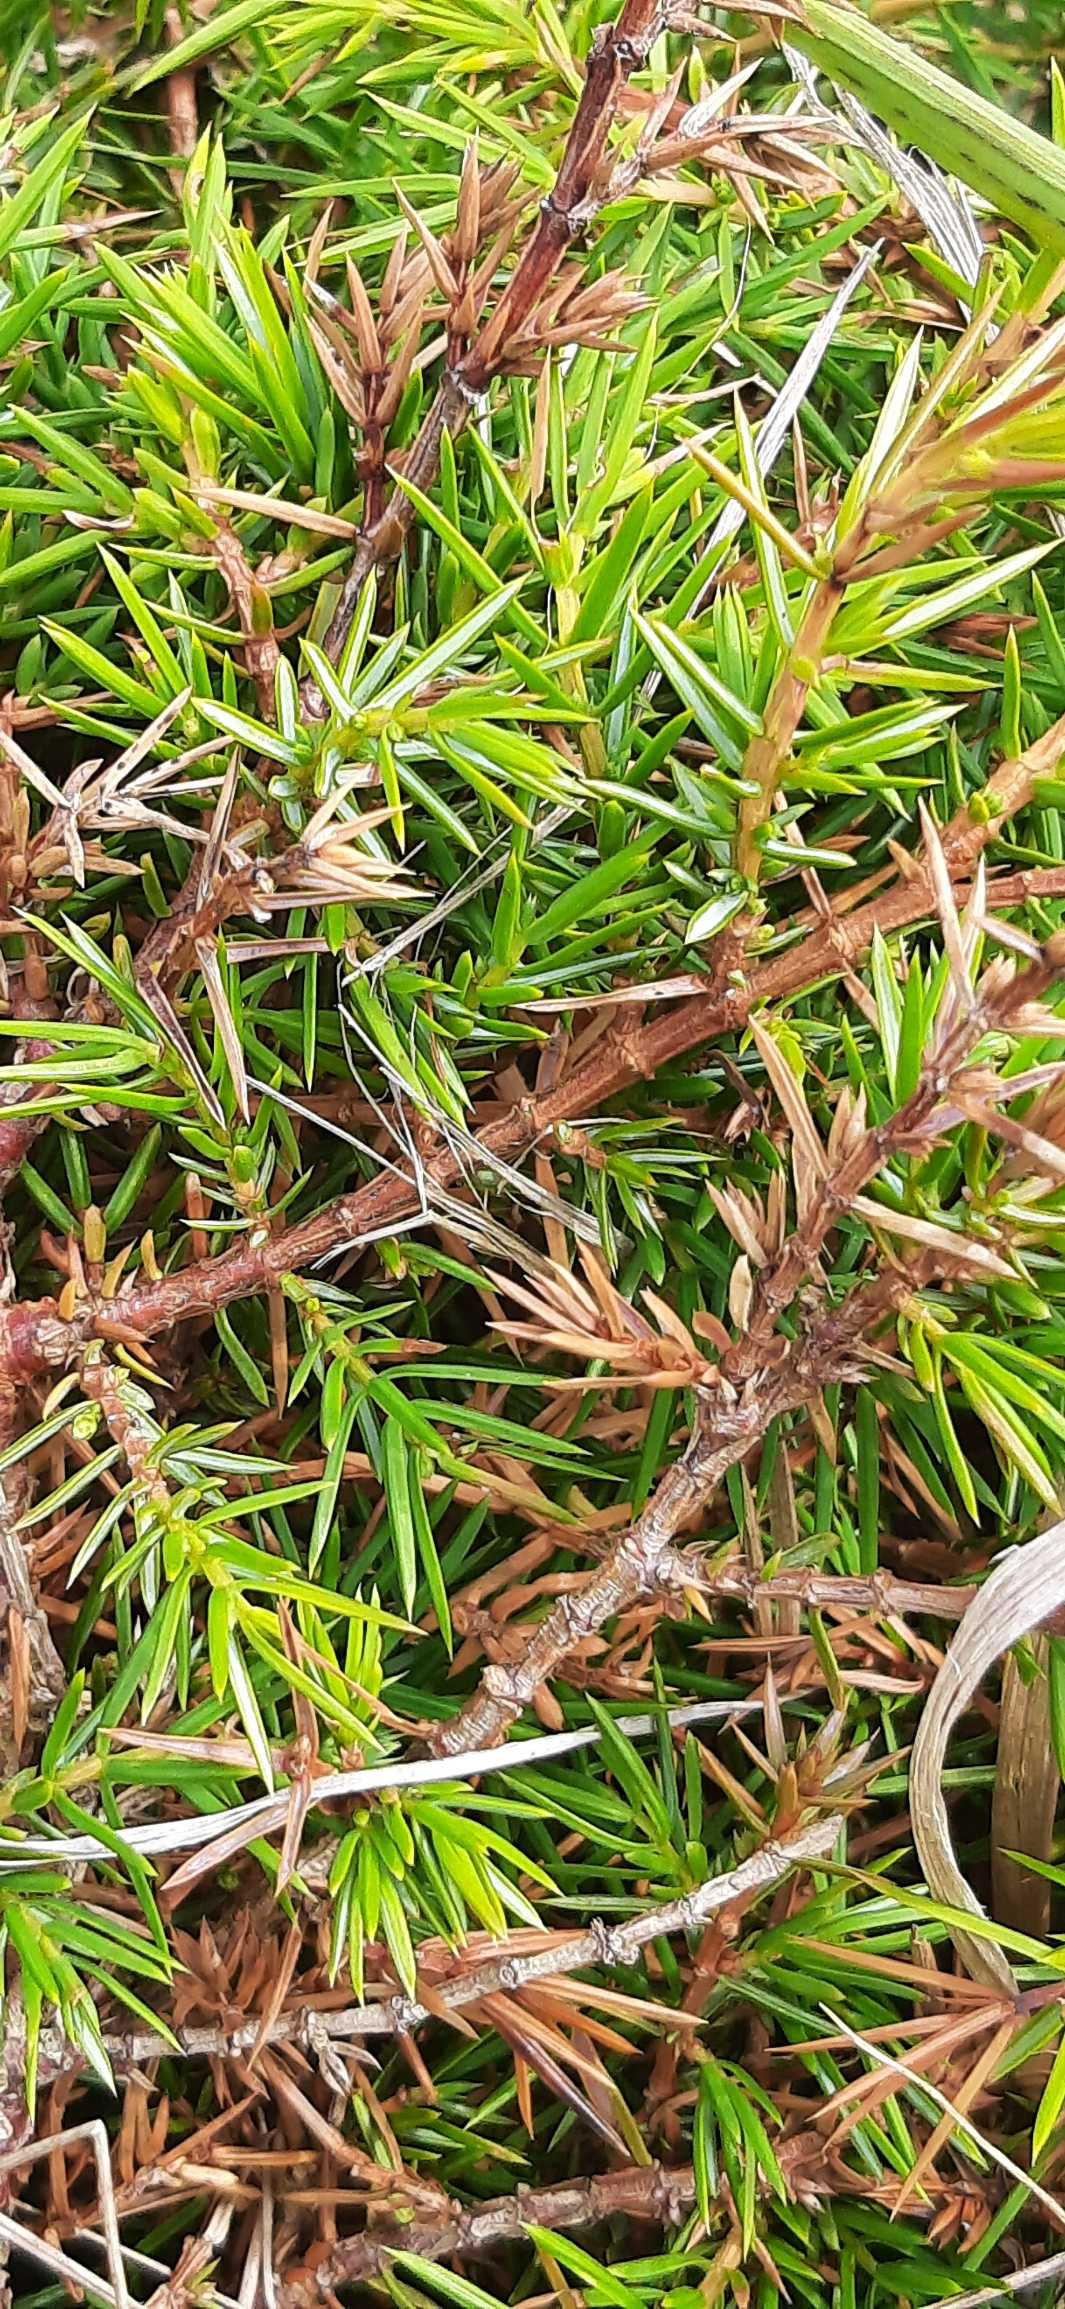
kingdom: Plantae
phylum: Tracheophyta
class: Pinopsida
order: Pinales
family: Cupressaceae
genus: Juniperus
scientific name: Juniperus communis
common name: Almindelig ene
